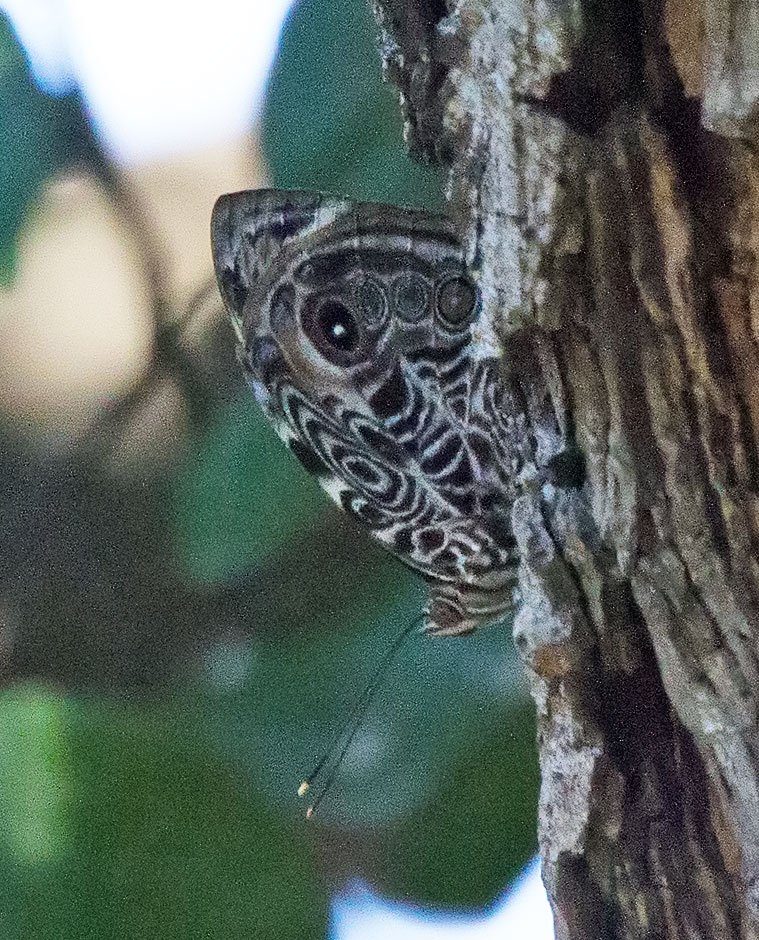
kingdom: Animalia
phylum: Arthropoda
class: Insecta
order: Lepidoptera
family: Nymphalidae
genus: Smyrna
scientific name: Smyrna blomfildia
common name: Blomfild's Beauty
